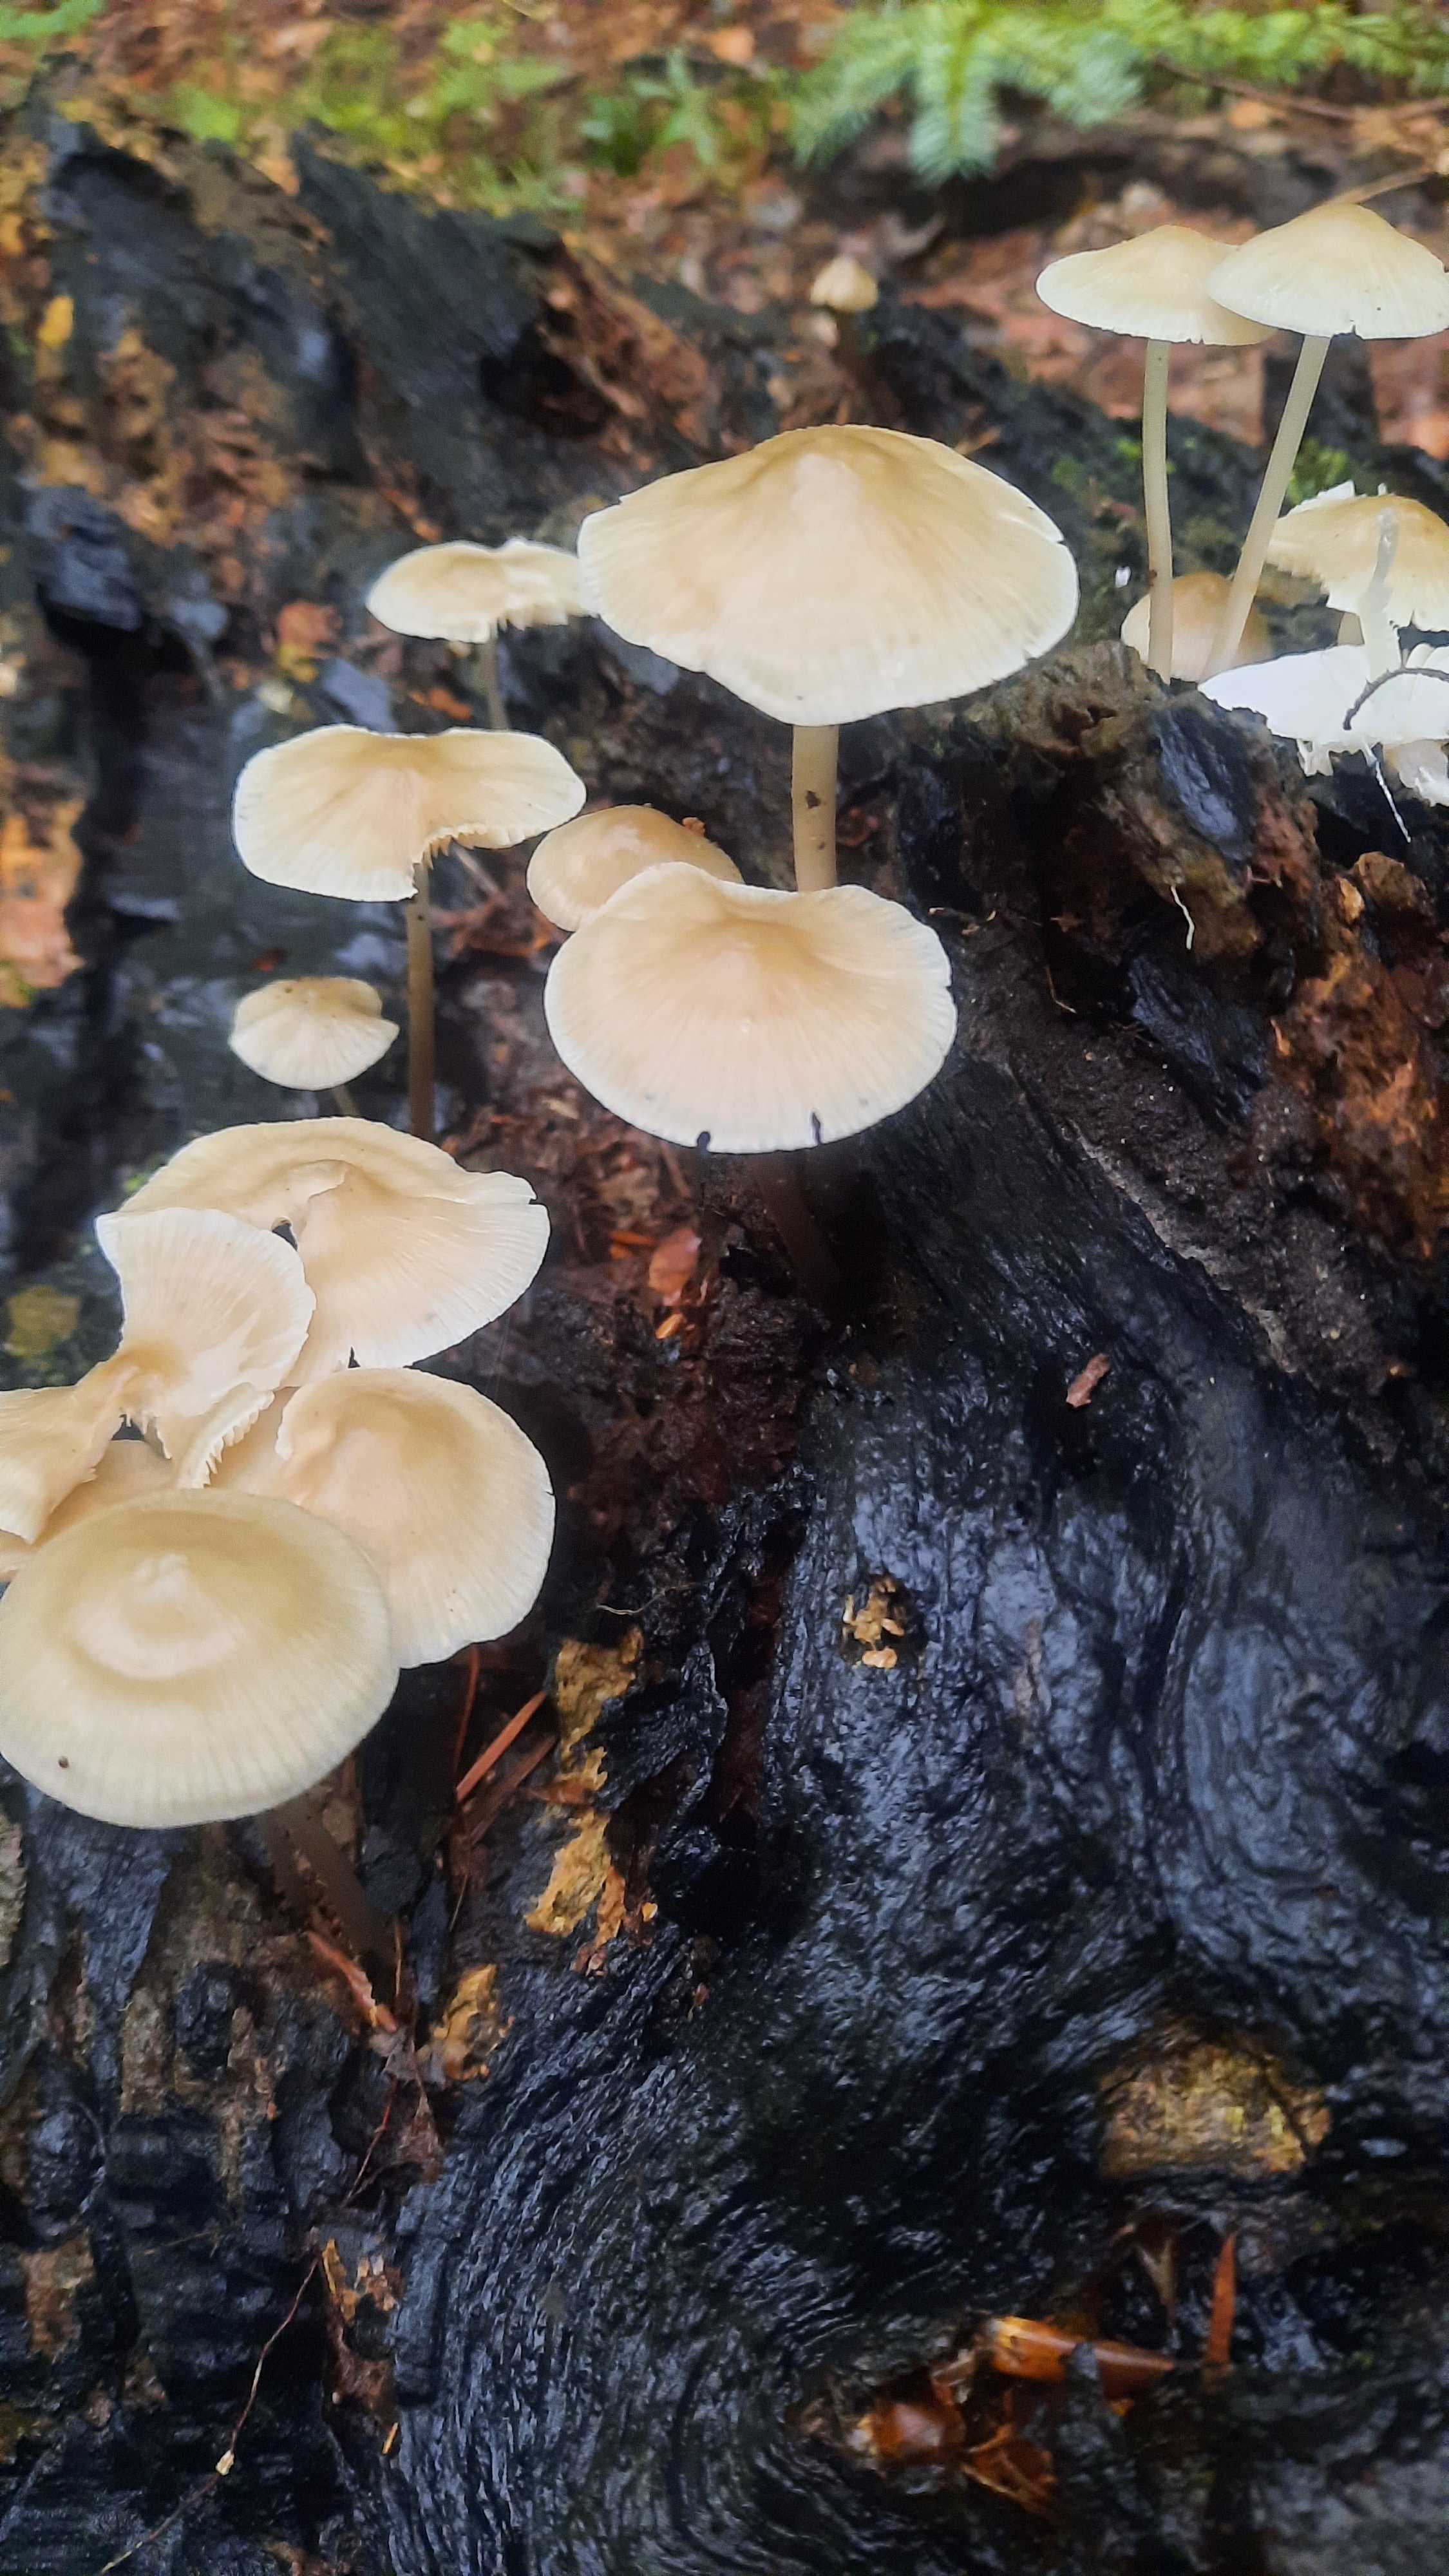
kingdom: Fungi
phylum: Basidiomycota
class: Agaricomycetes
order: Agaricales
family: Mycenaceae
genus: Mycena
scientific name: Mycena galericulata
